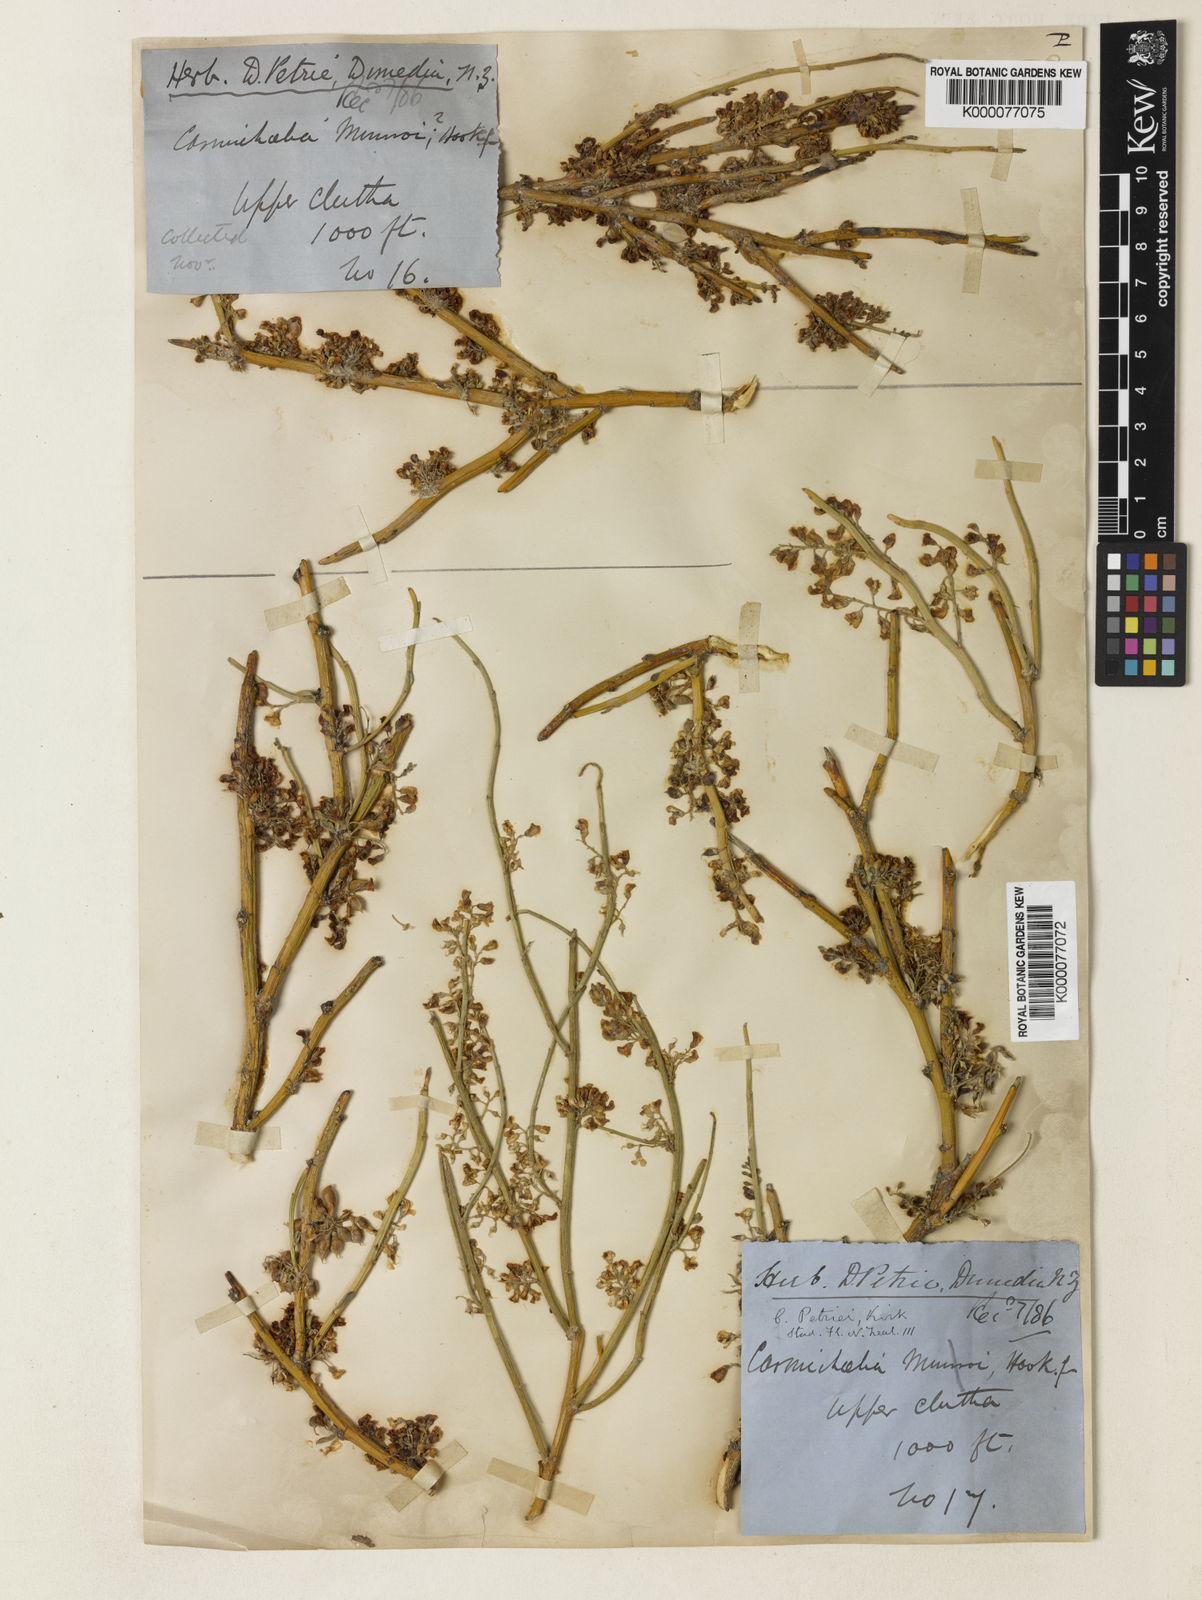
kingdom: Plantae
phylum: Tracheophyta
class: Magnoliopsida
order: Fabales
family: Fabaceae
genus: Carmichaelia
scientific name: Carmichaelia petriei
